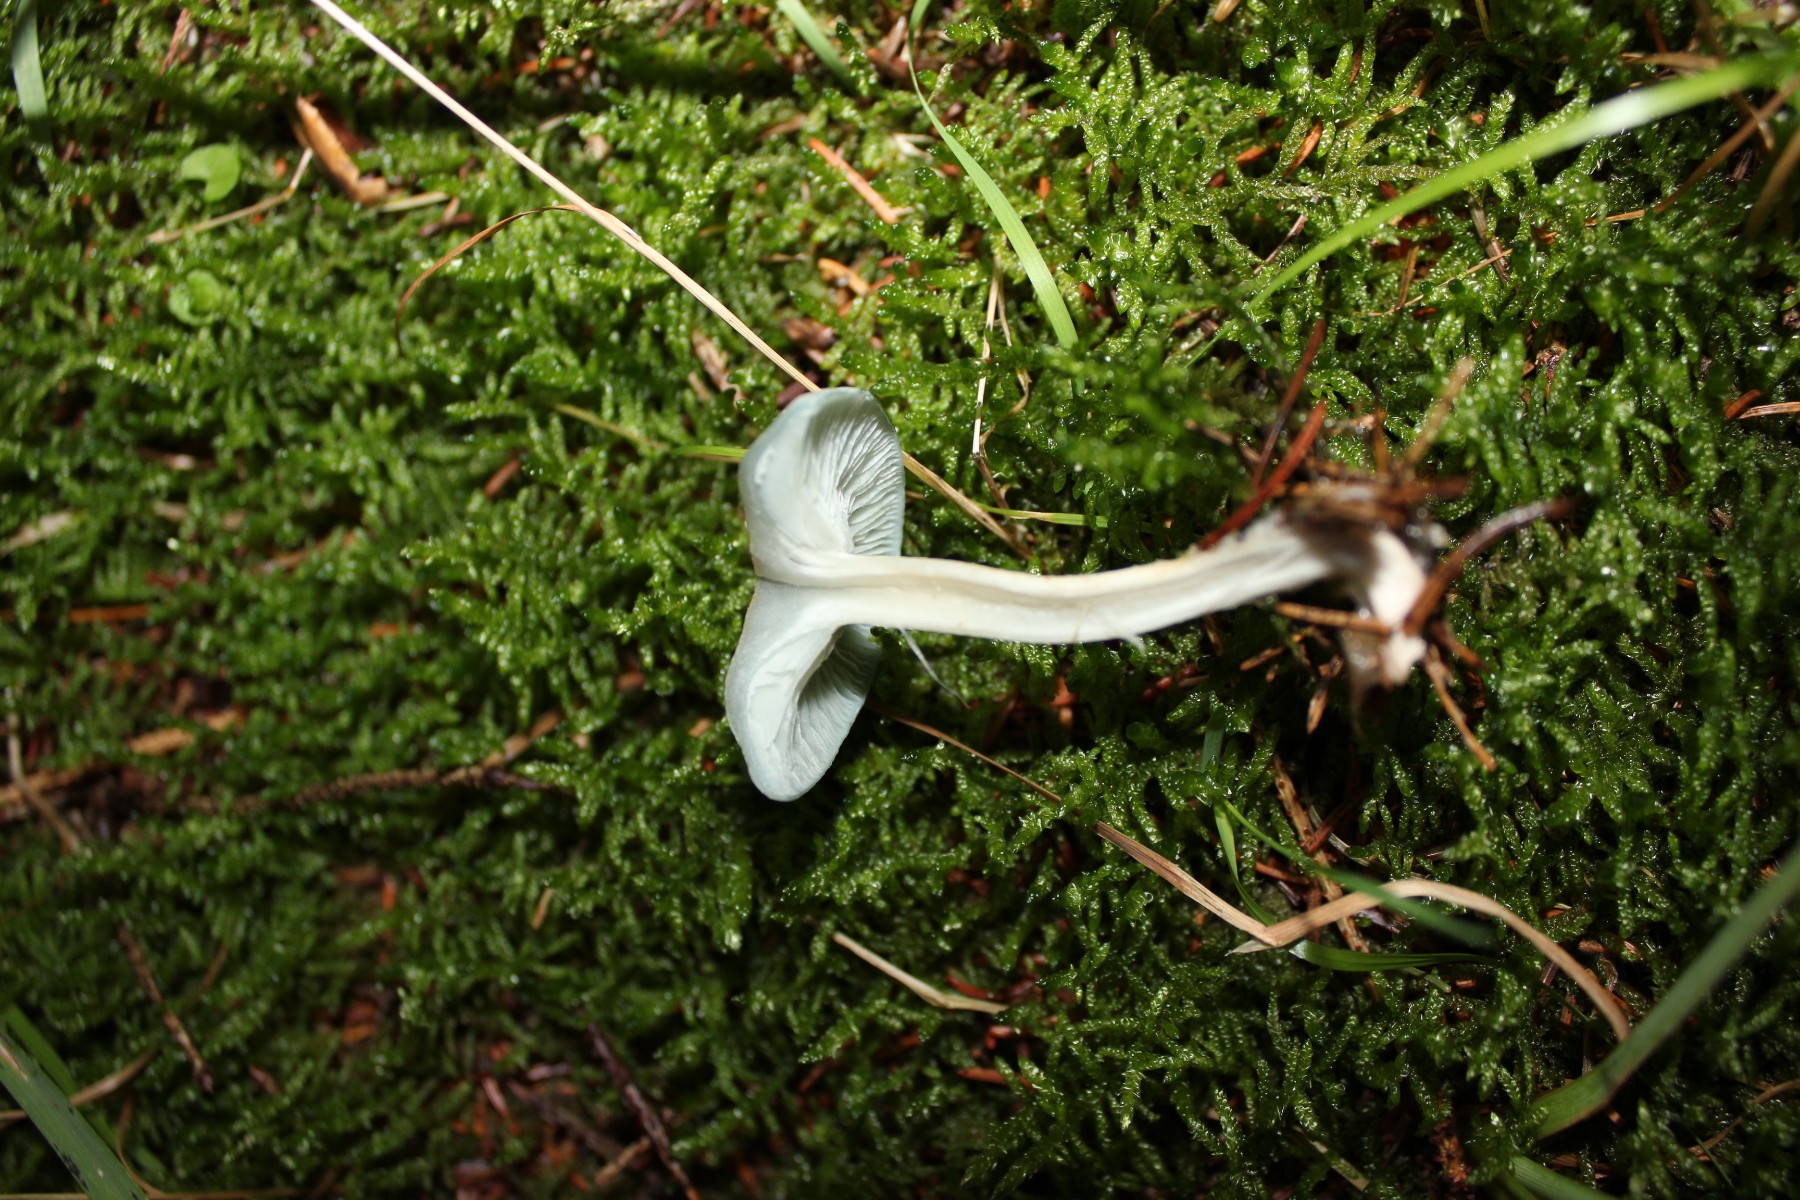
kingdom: Fungi
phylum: Basidiomycota
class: Agaricomycetes
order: Agaricales
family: Tricholomataceae
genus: Clitocybe
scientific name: Clitocybe odora
